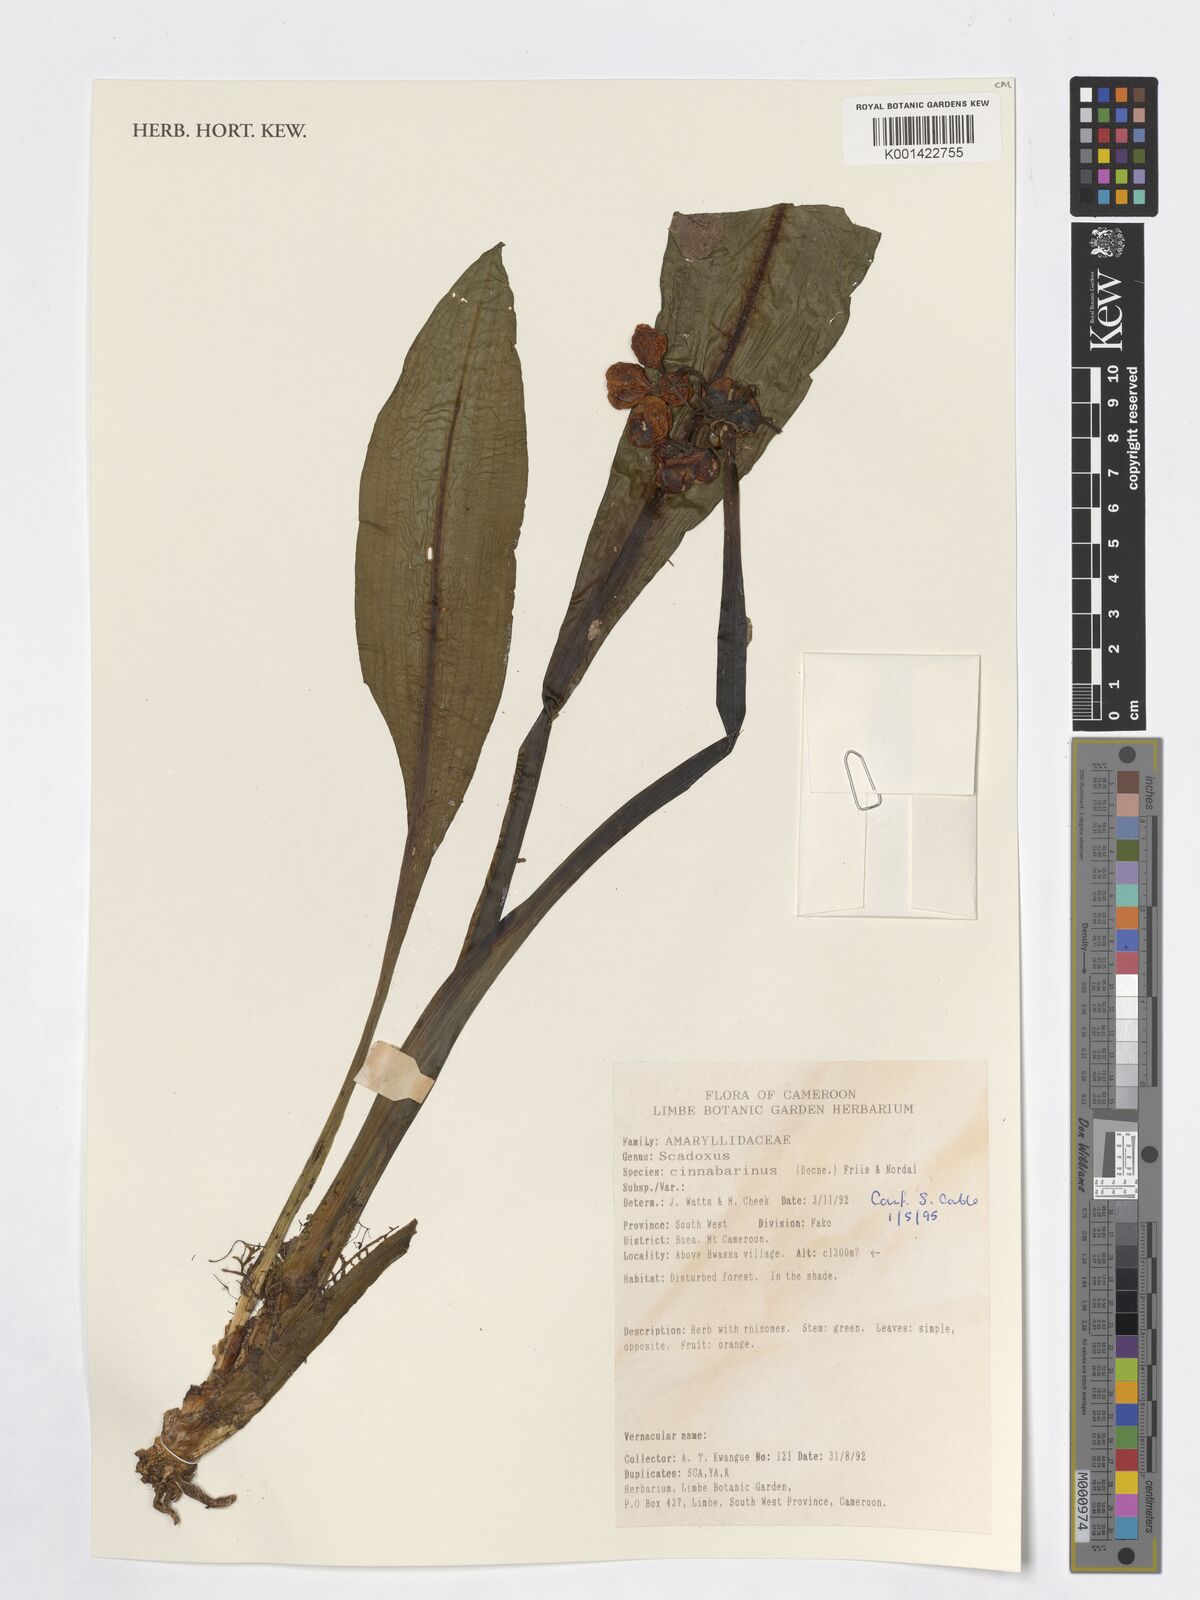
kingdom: Plantae
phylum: Tracheophyta
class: Liliopsida
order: Asparagales
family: Amaryllidaceae
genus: Scadoxus
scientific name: Scadoxus cinnabarinus
